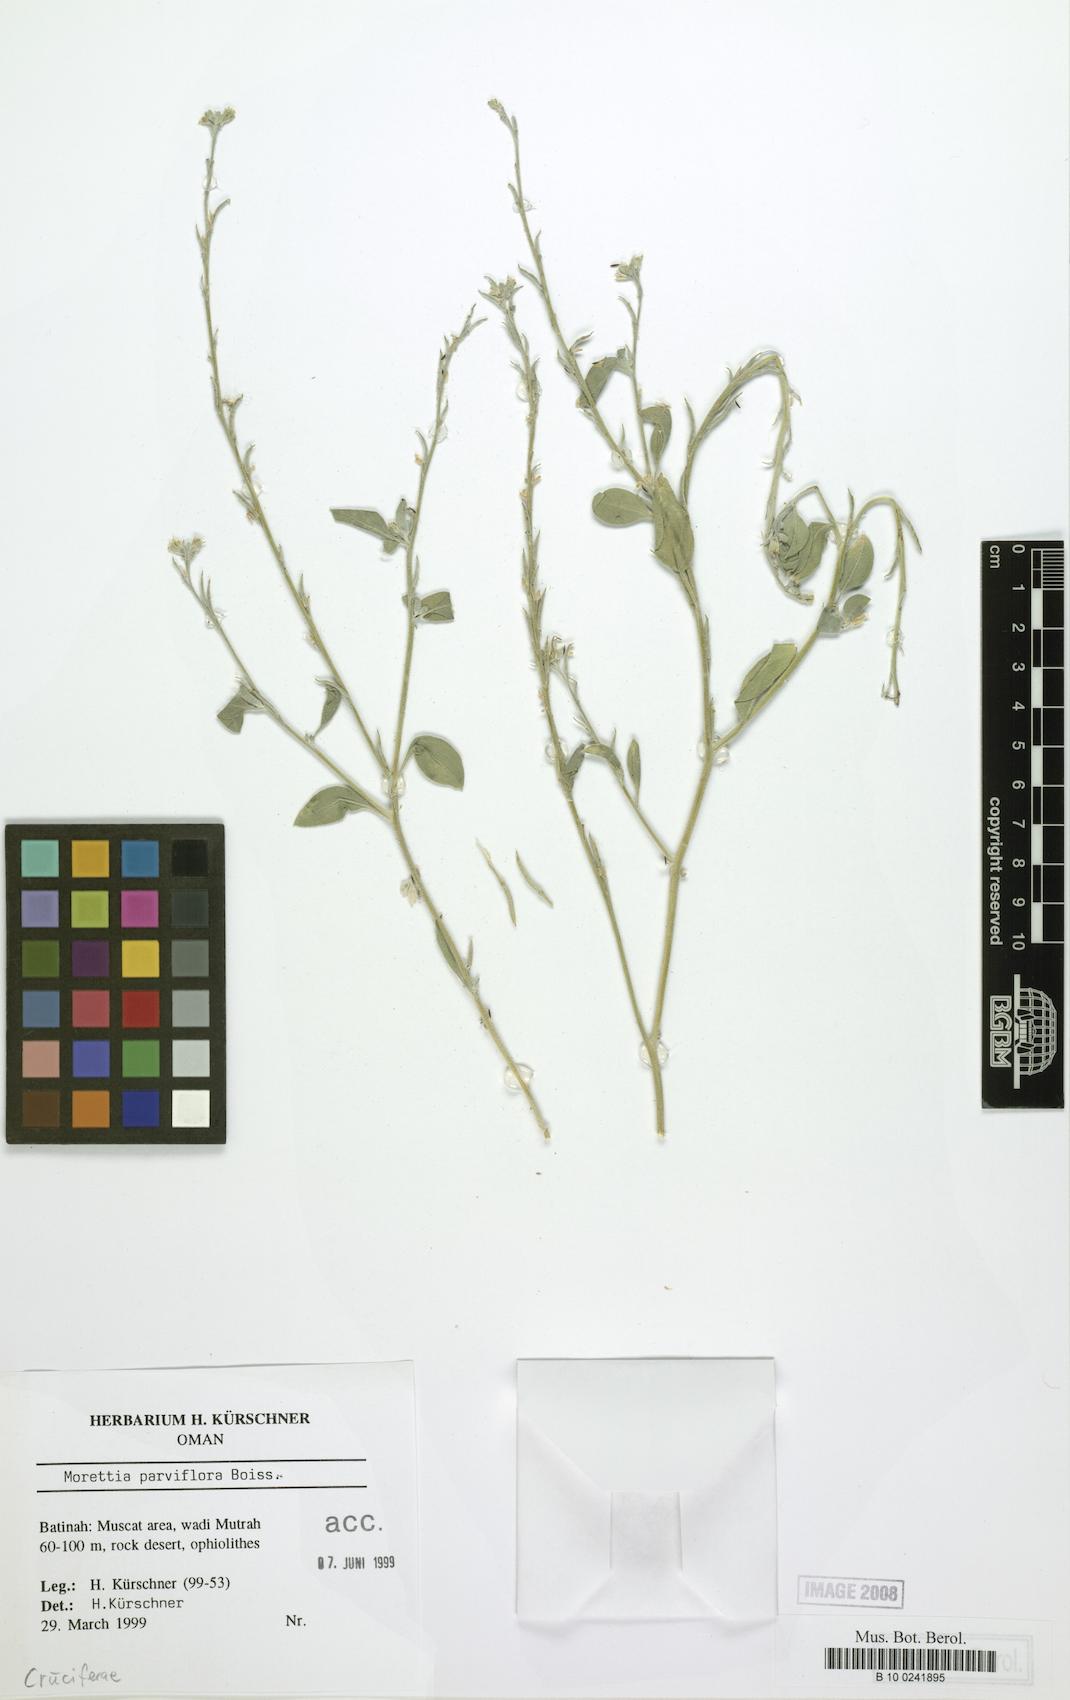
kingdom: Plantae
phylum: Tracheophyta
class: Magnoliopsida
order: Brassicales
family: Brassicaceae
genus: Morettia
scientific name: Morettia parviflora
